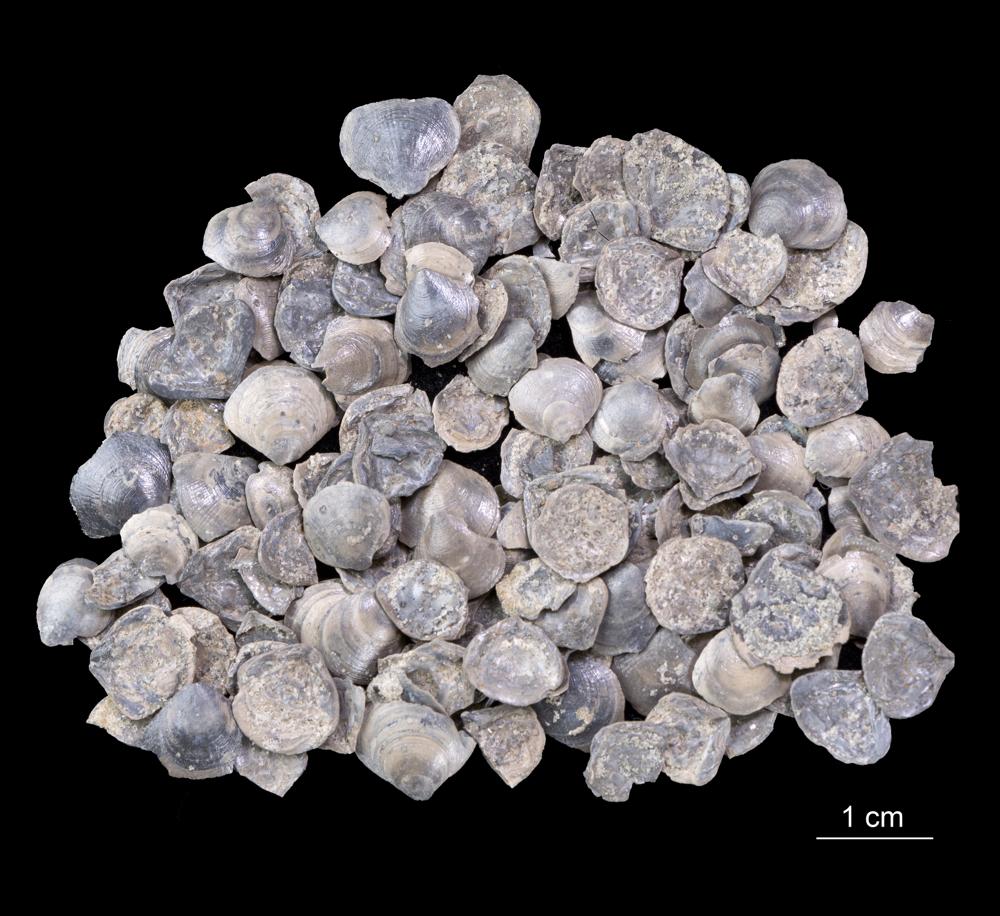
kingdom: Animalia
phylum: Brachiopoda
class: Lingulata
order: Lingulida
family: Obolidae
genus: Obolus
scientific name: Obolus
